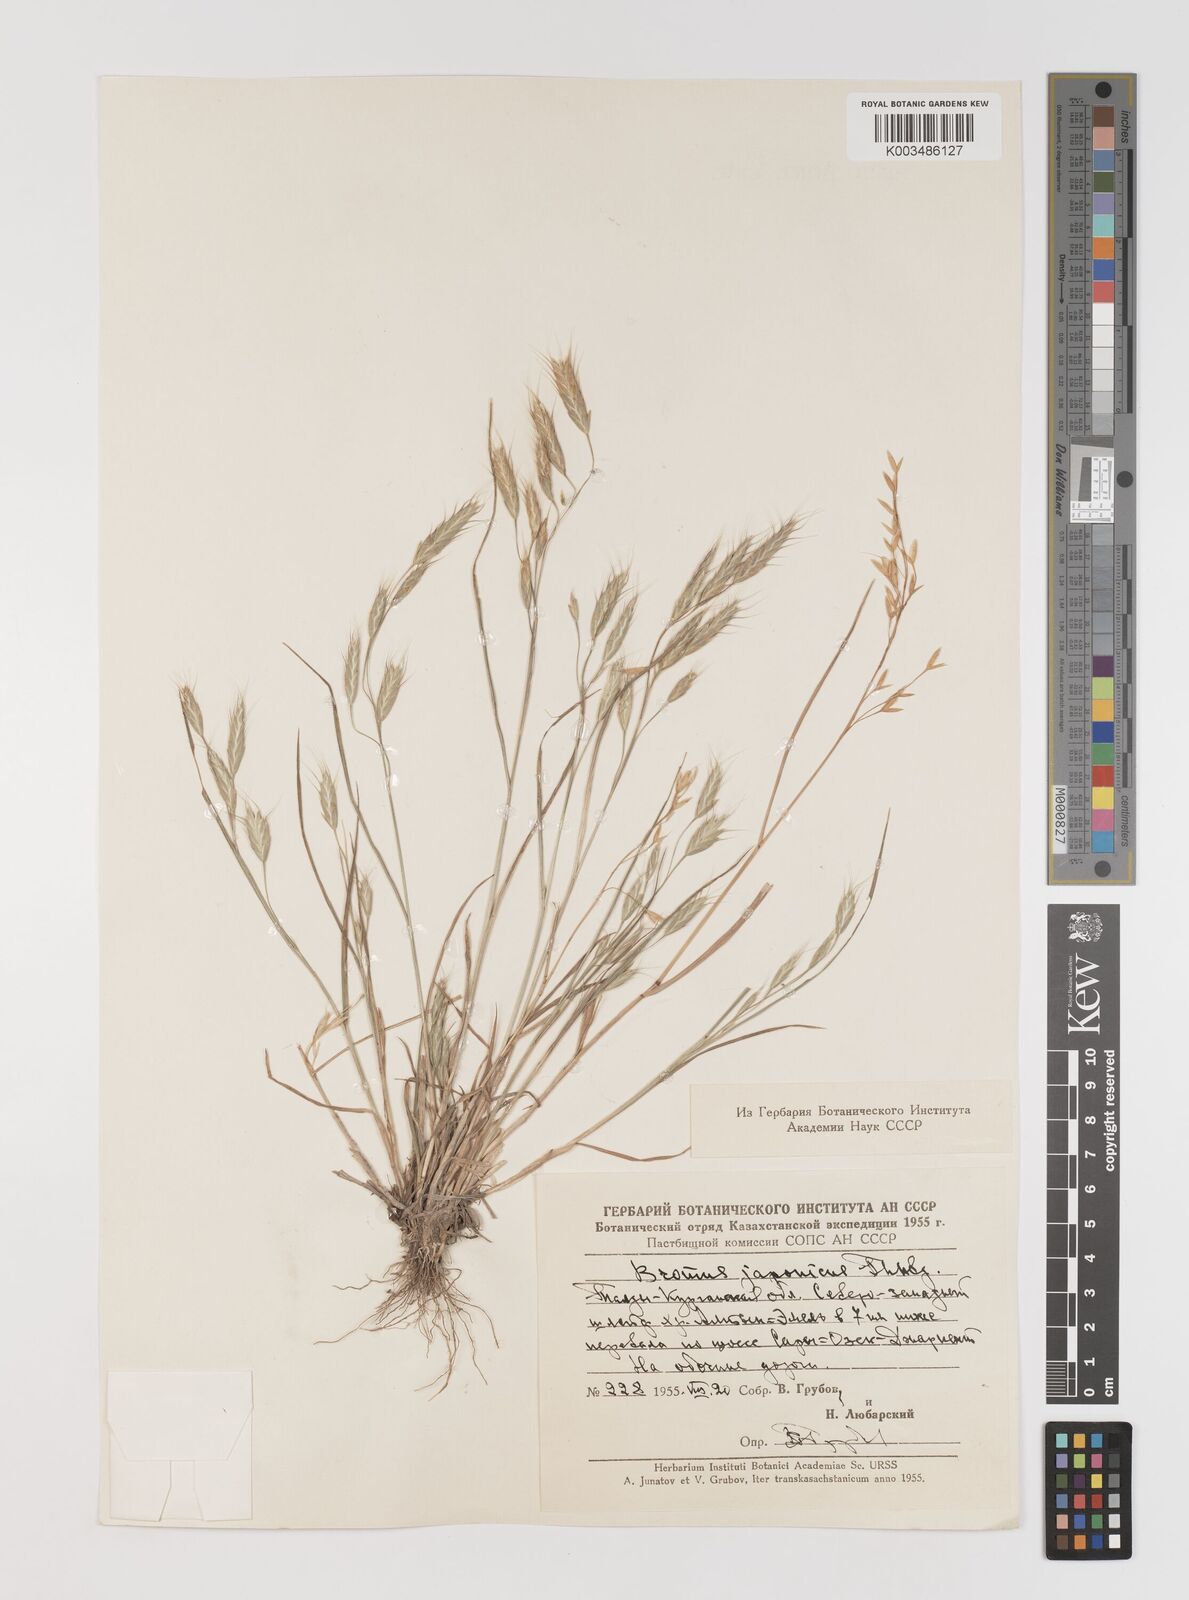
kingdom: Plantae
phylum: Tracheophyta
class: Liliopsida
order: Poales
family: Poaceae
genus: Bromus
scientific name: Bromus japonicus
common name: Japanese brome
